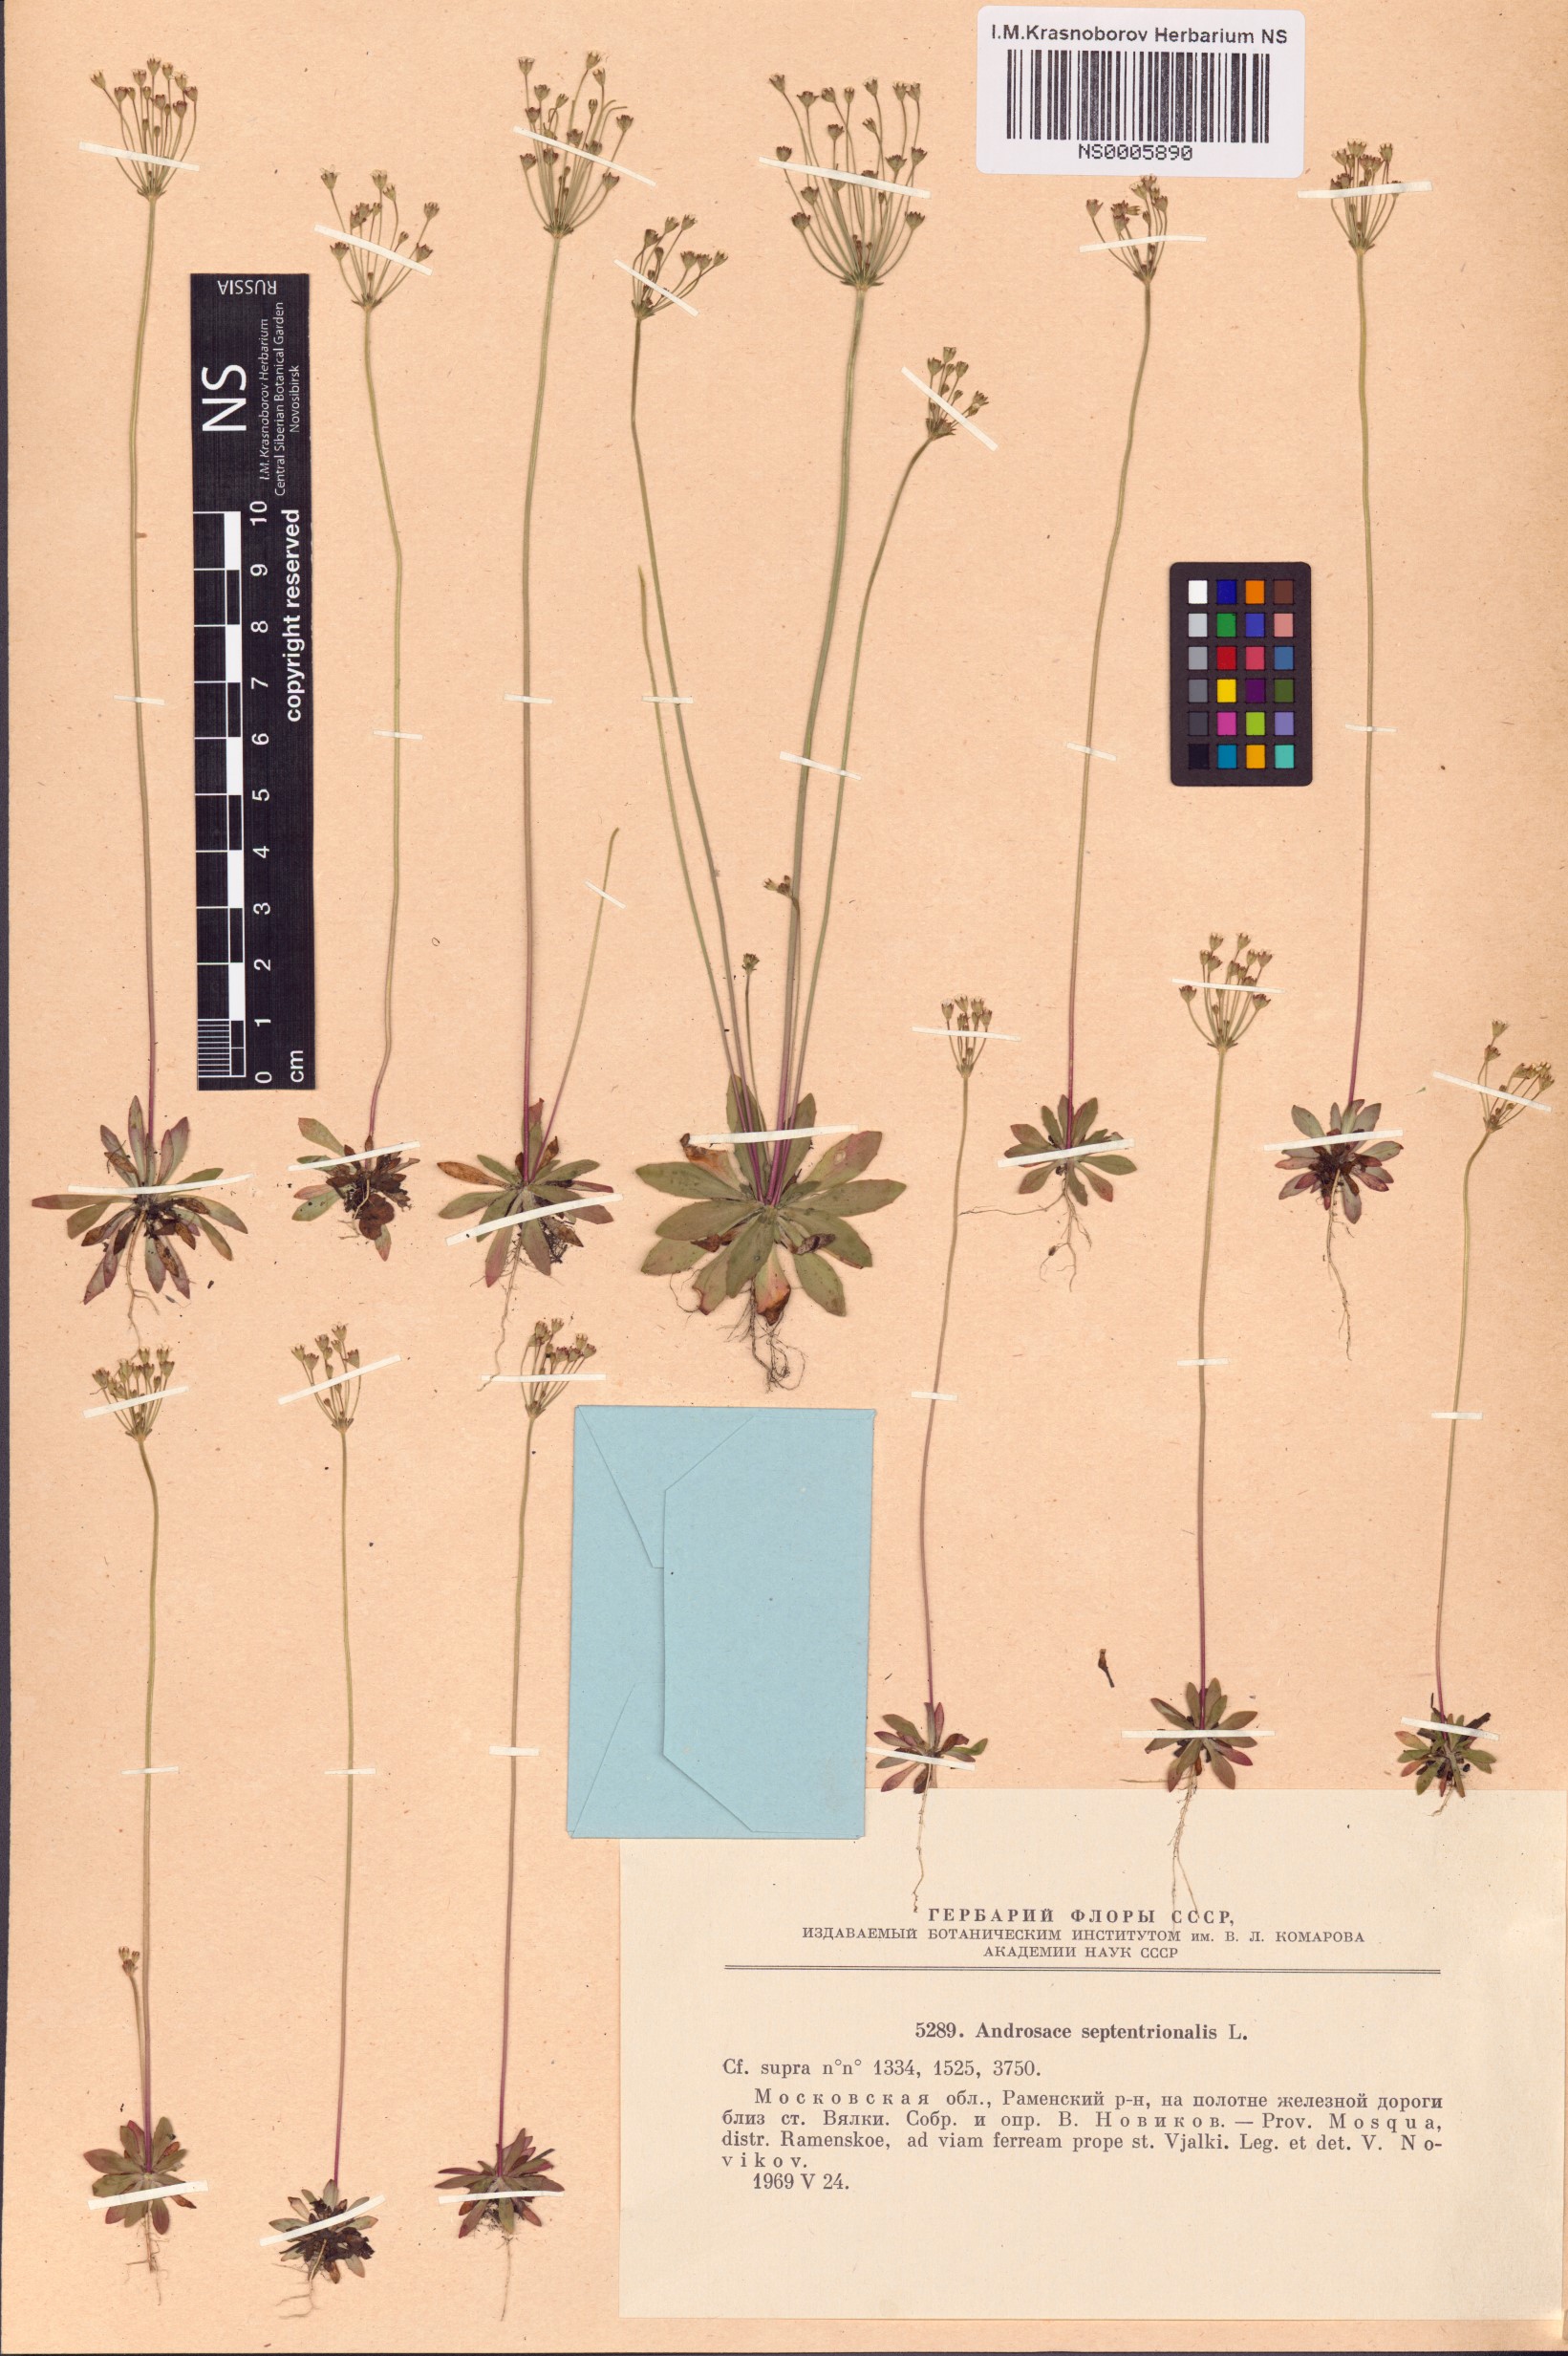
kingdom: Plantae
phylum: Tracheophyta
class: Magnoliopsida
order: Ericales
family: Primulaceae
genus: Androsace
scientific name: Androsace septentrionalis
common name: Hairy northern fairy-candelabra
